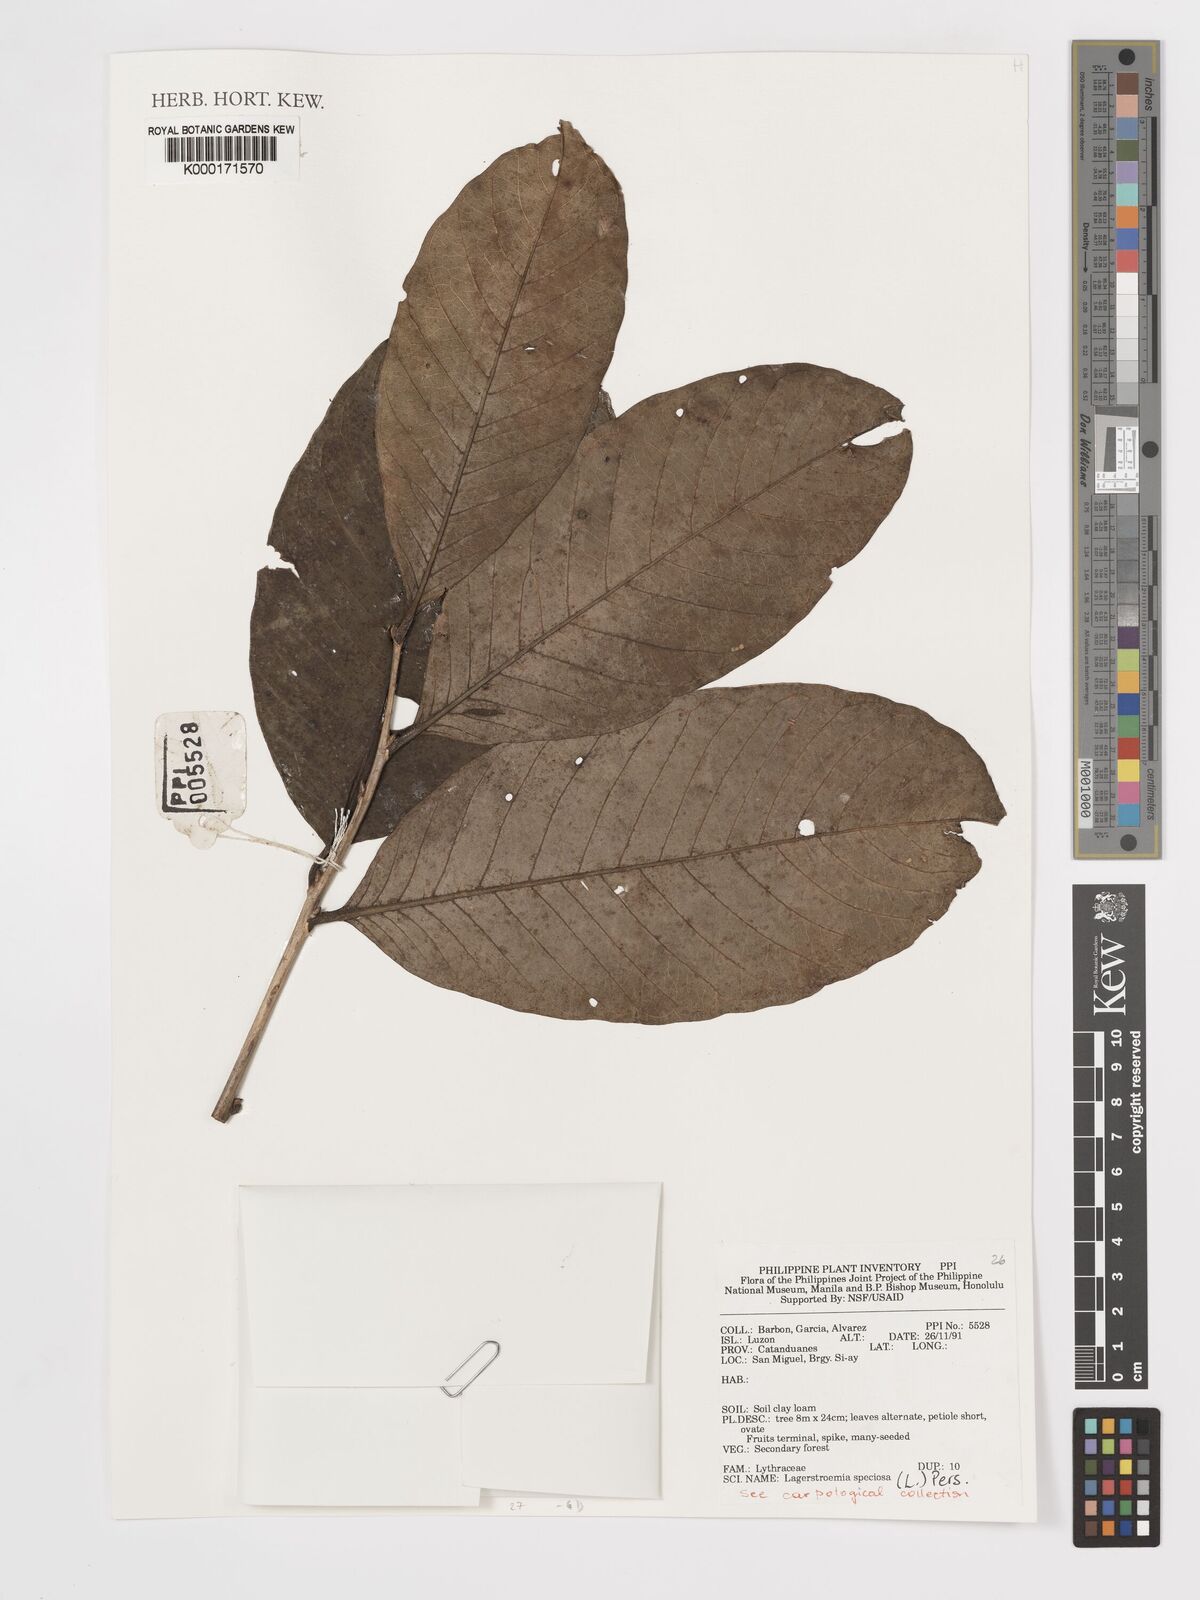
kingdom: Plantae
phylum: Tracheophyta
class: Magnoliopsida
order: Myrtales
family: Lythraceae
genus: Lagerstroemia
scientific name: Lagerstroemia speciosa
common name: Queen's crape-myrtle
